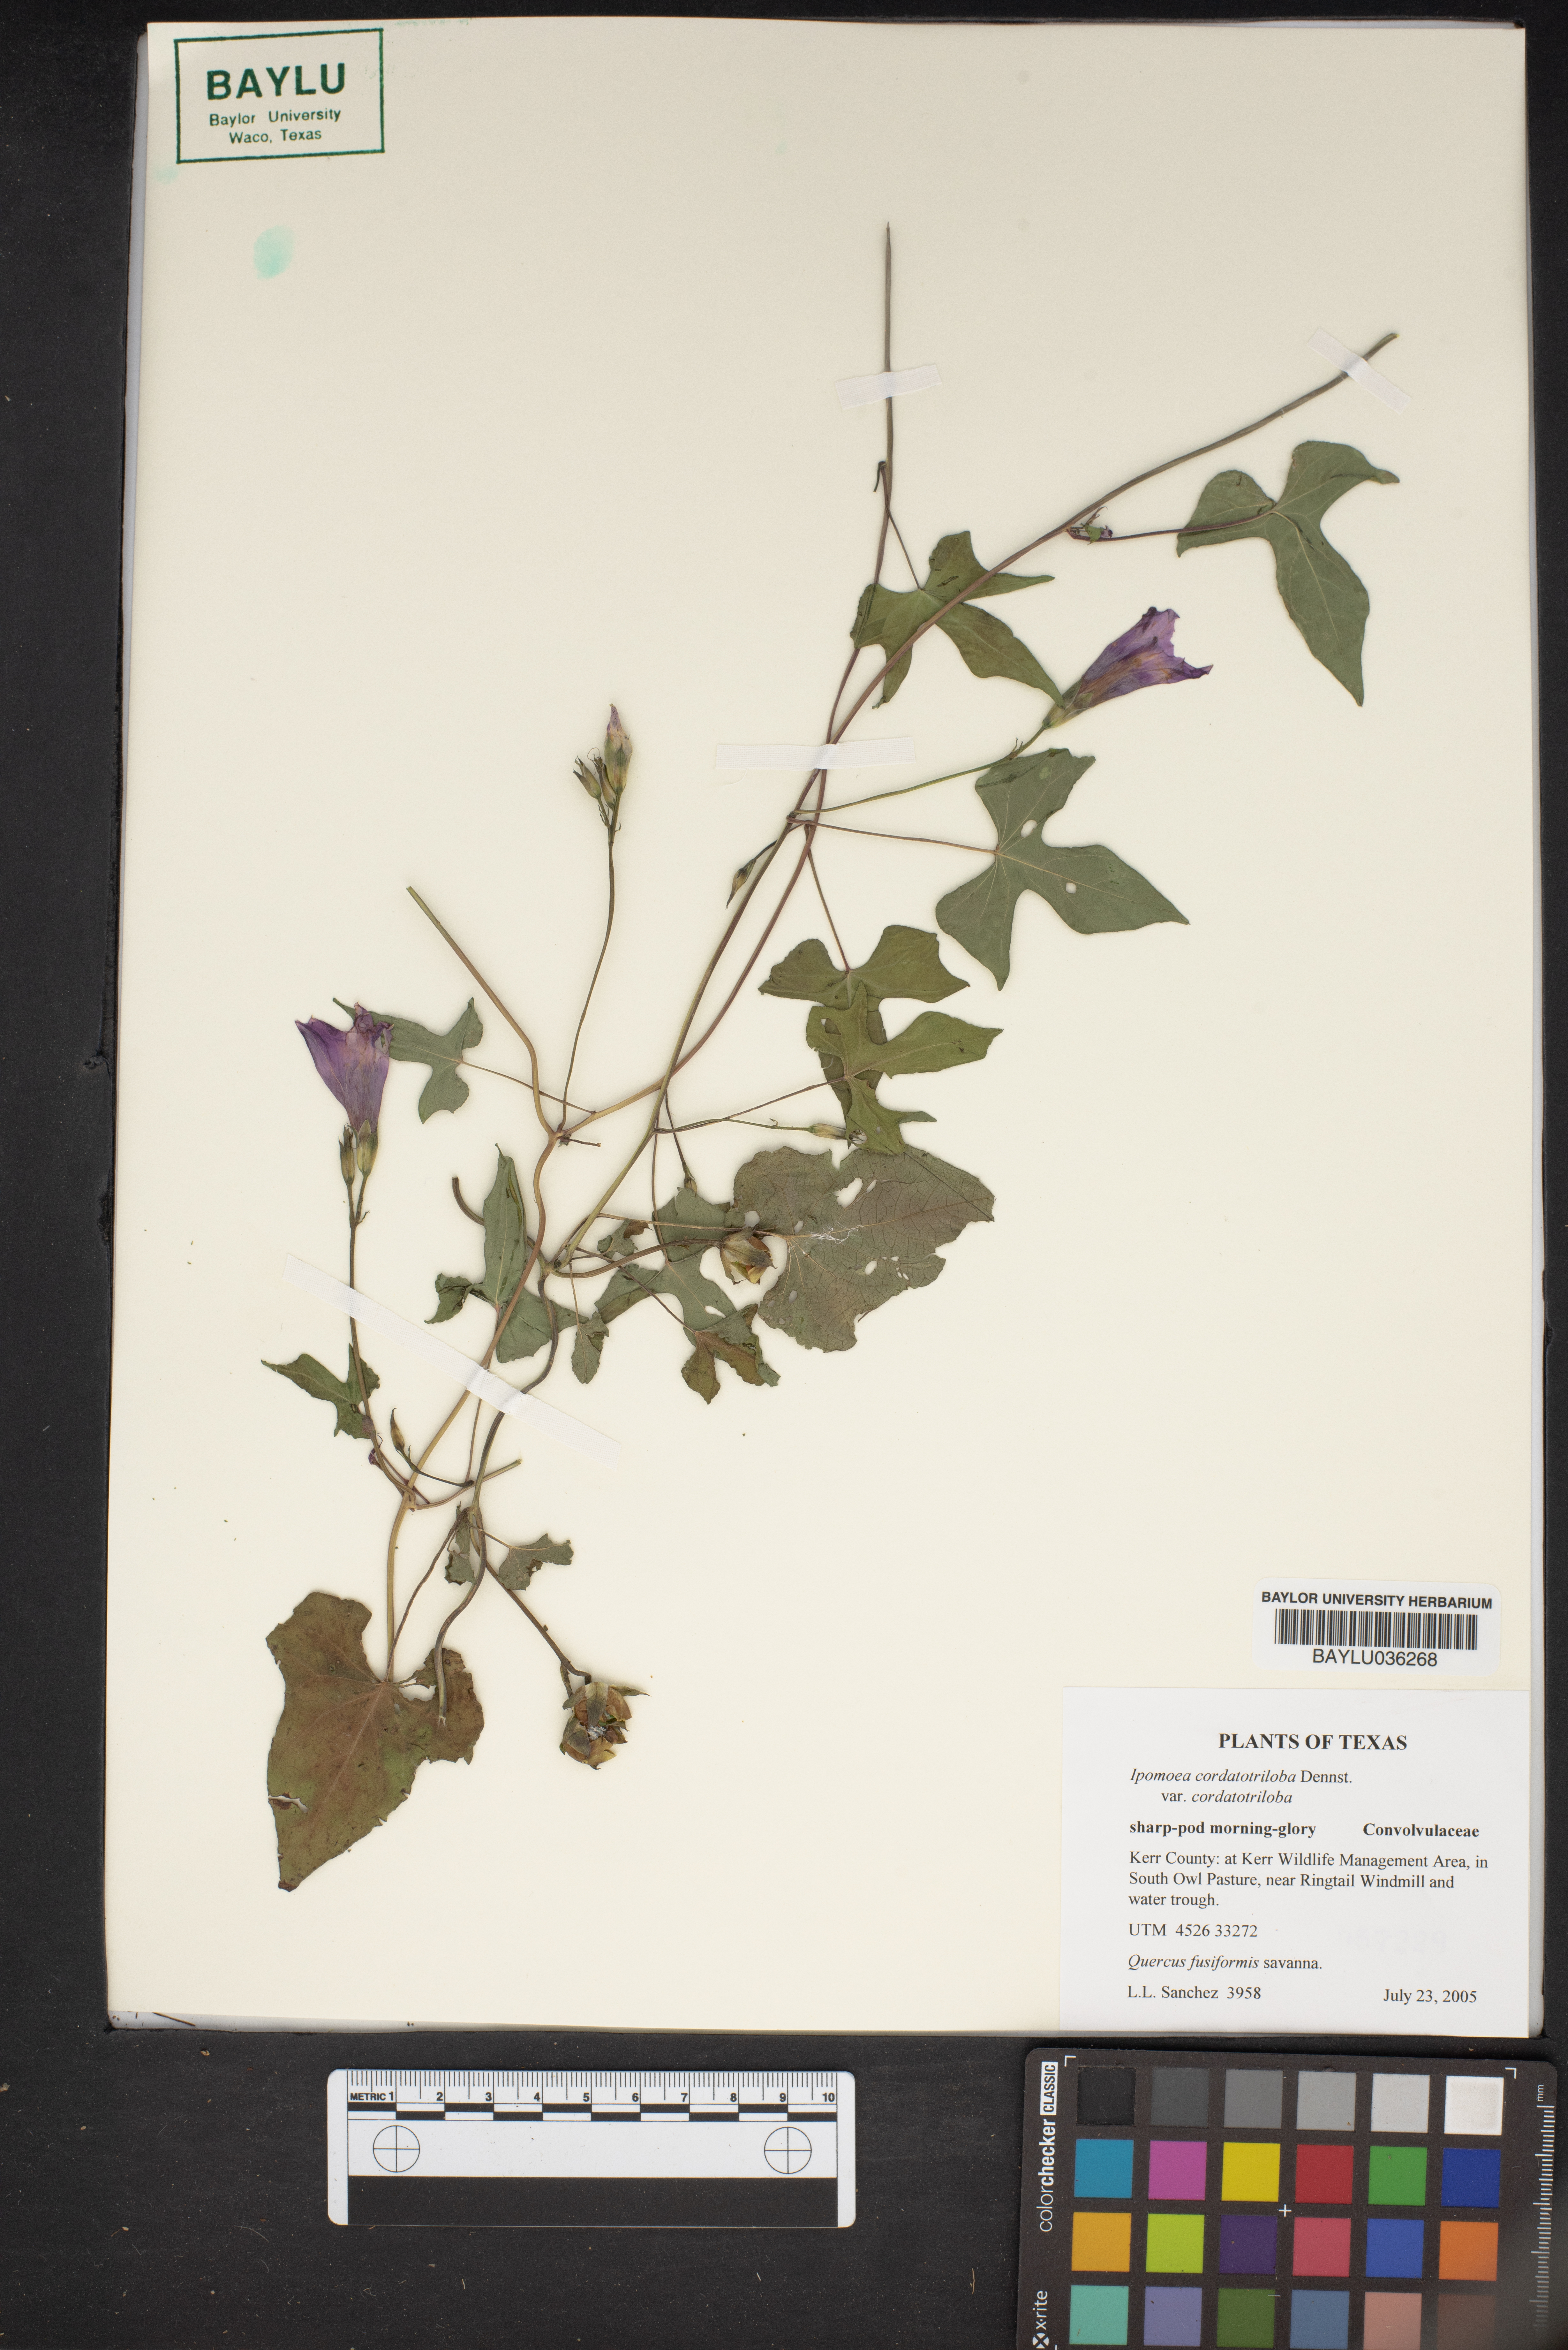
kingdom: Plantae
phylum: Tracheophyta
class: Magnoliopsida
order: Solanales
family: Convolvulaceae
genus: Ipomoea
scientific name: Ipomoea cordatotriloba
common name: Cotton morning glory
